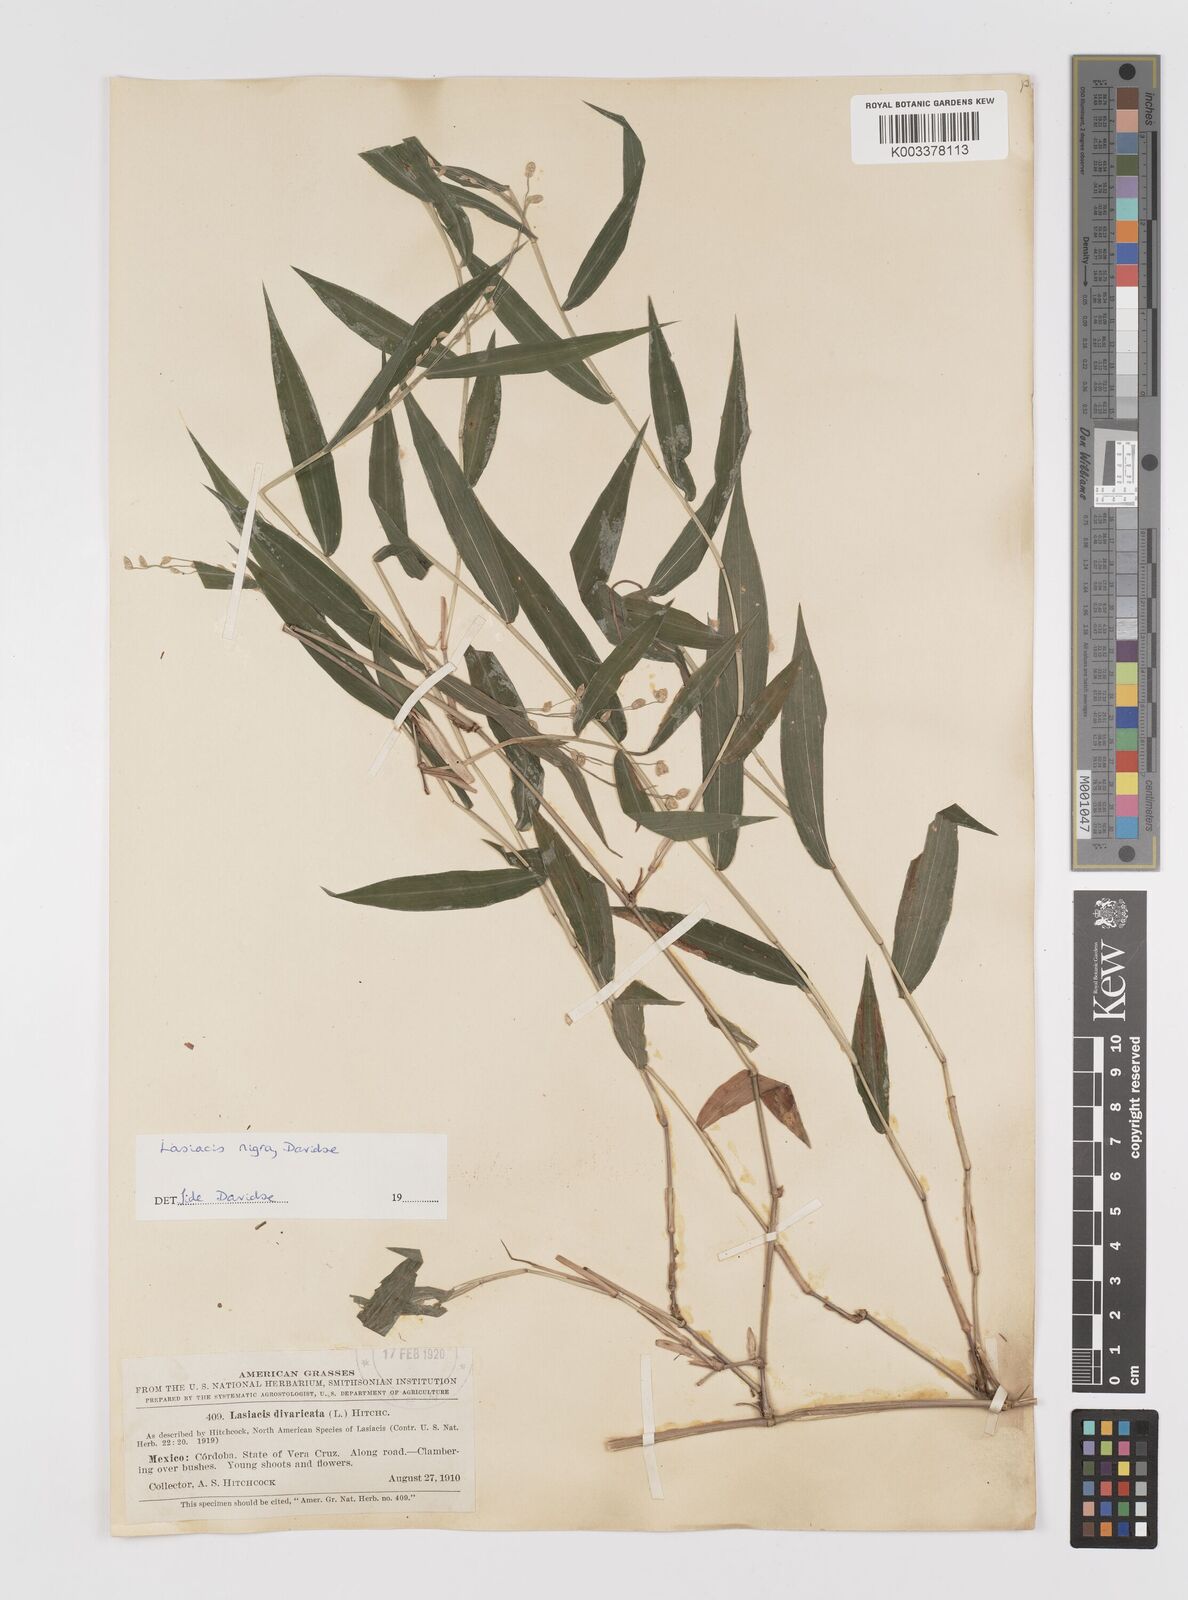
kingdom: Plantae
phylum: Tracheophyta
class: Liliopsida
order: Poales
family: Poaceae
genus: Lasiacis
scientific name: Lasiacis nigra
